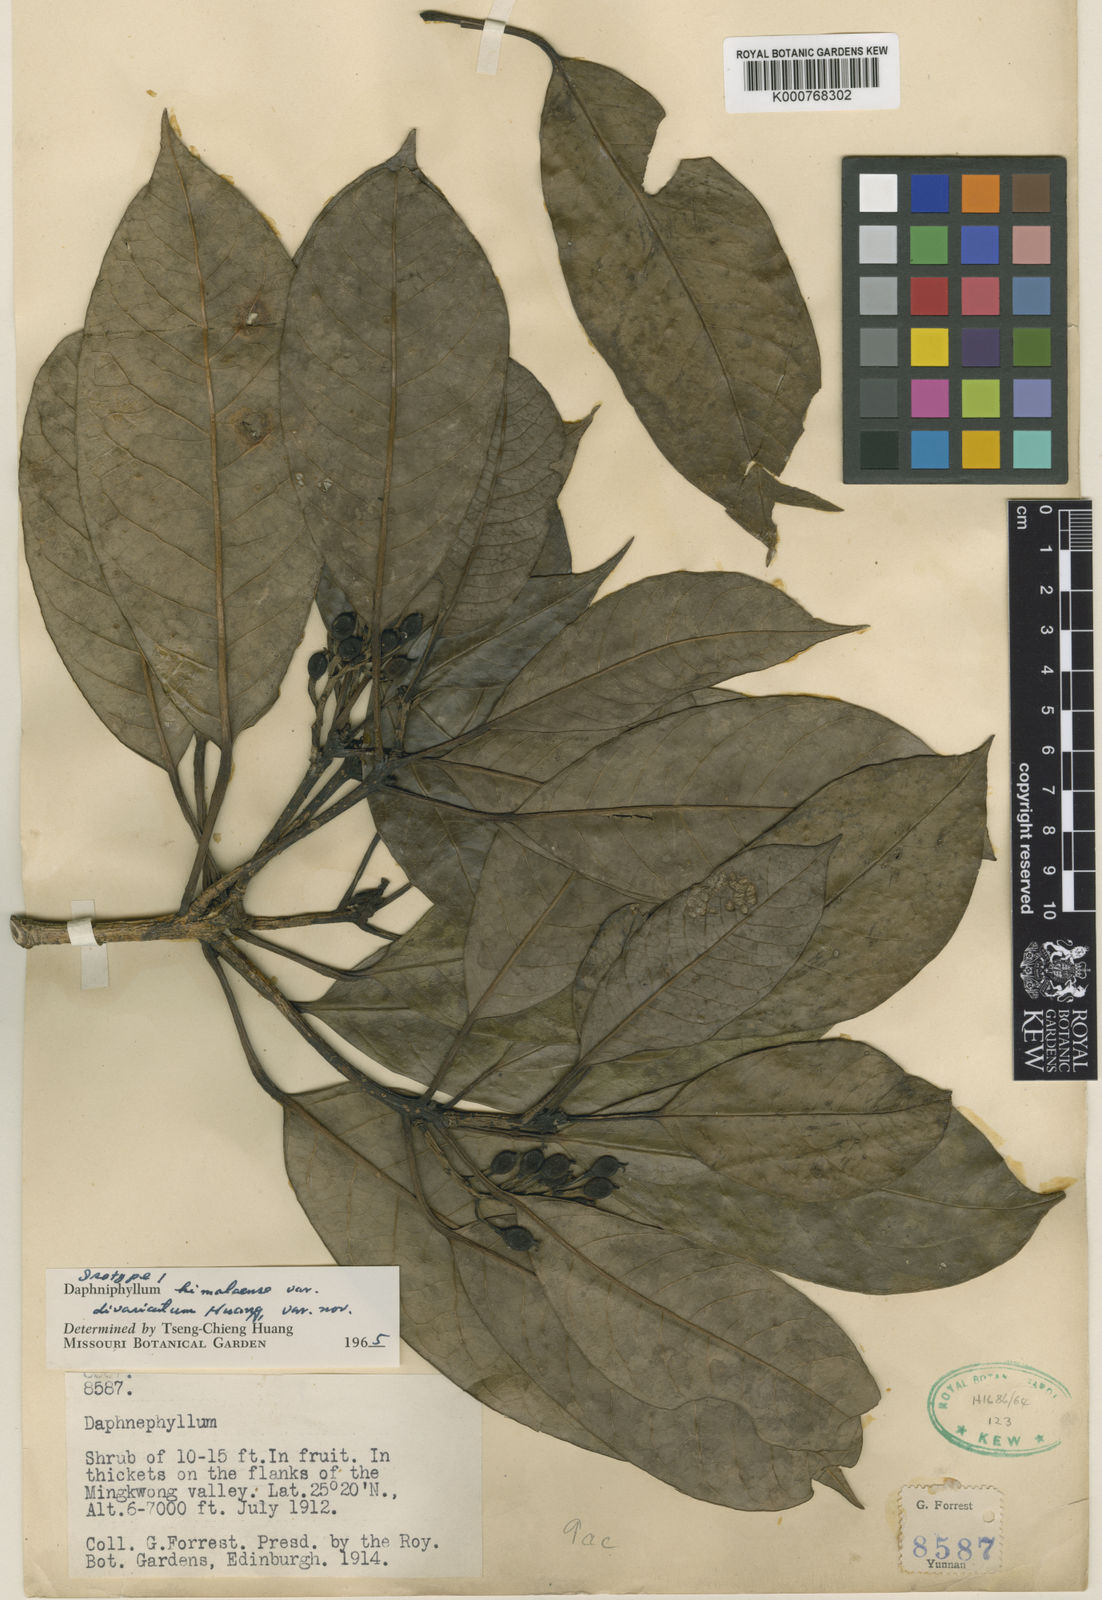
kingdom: Plantae
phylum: Tracheophyta
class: Magnoliopsida
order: Saxifragales
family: Daphniphyllaceae
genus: Daphniphyllum
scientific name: Daphniphyllum
